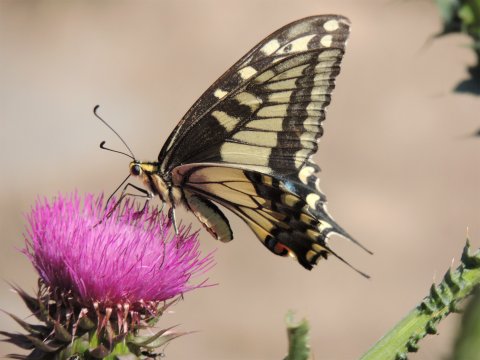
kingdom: Animalia
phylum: Arthropoda
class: Insecta
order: Lepidoptera
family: Papilionidae
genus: Papilio
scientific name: Papilio machaon
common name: Old World Swallowtail
